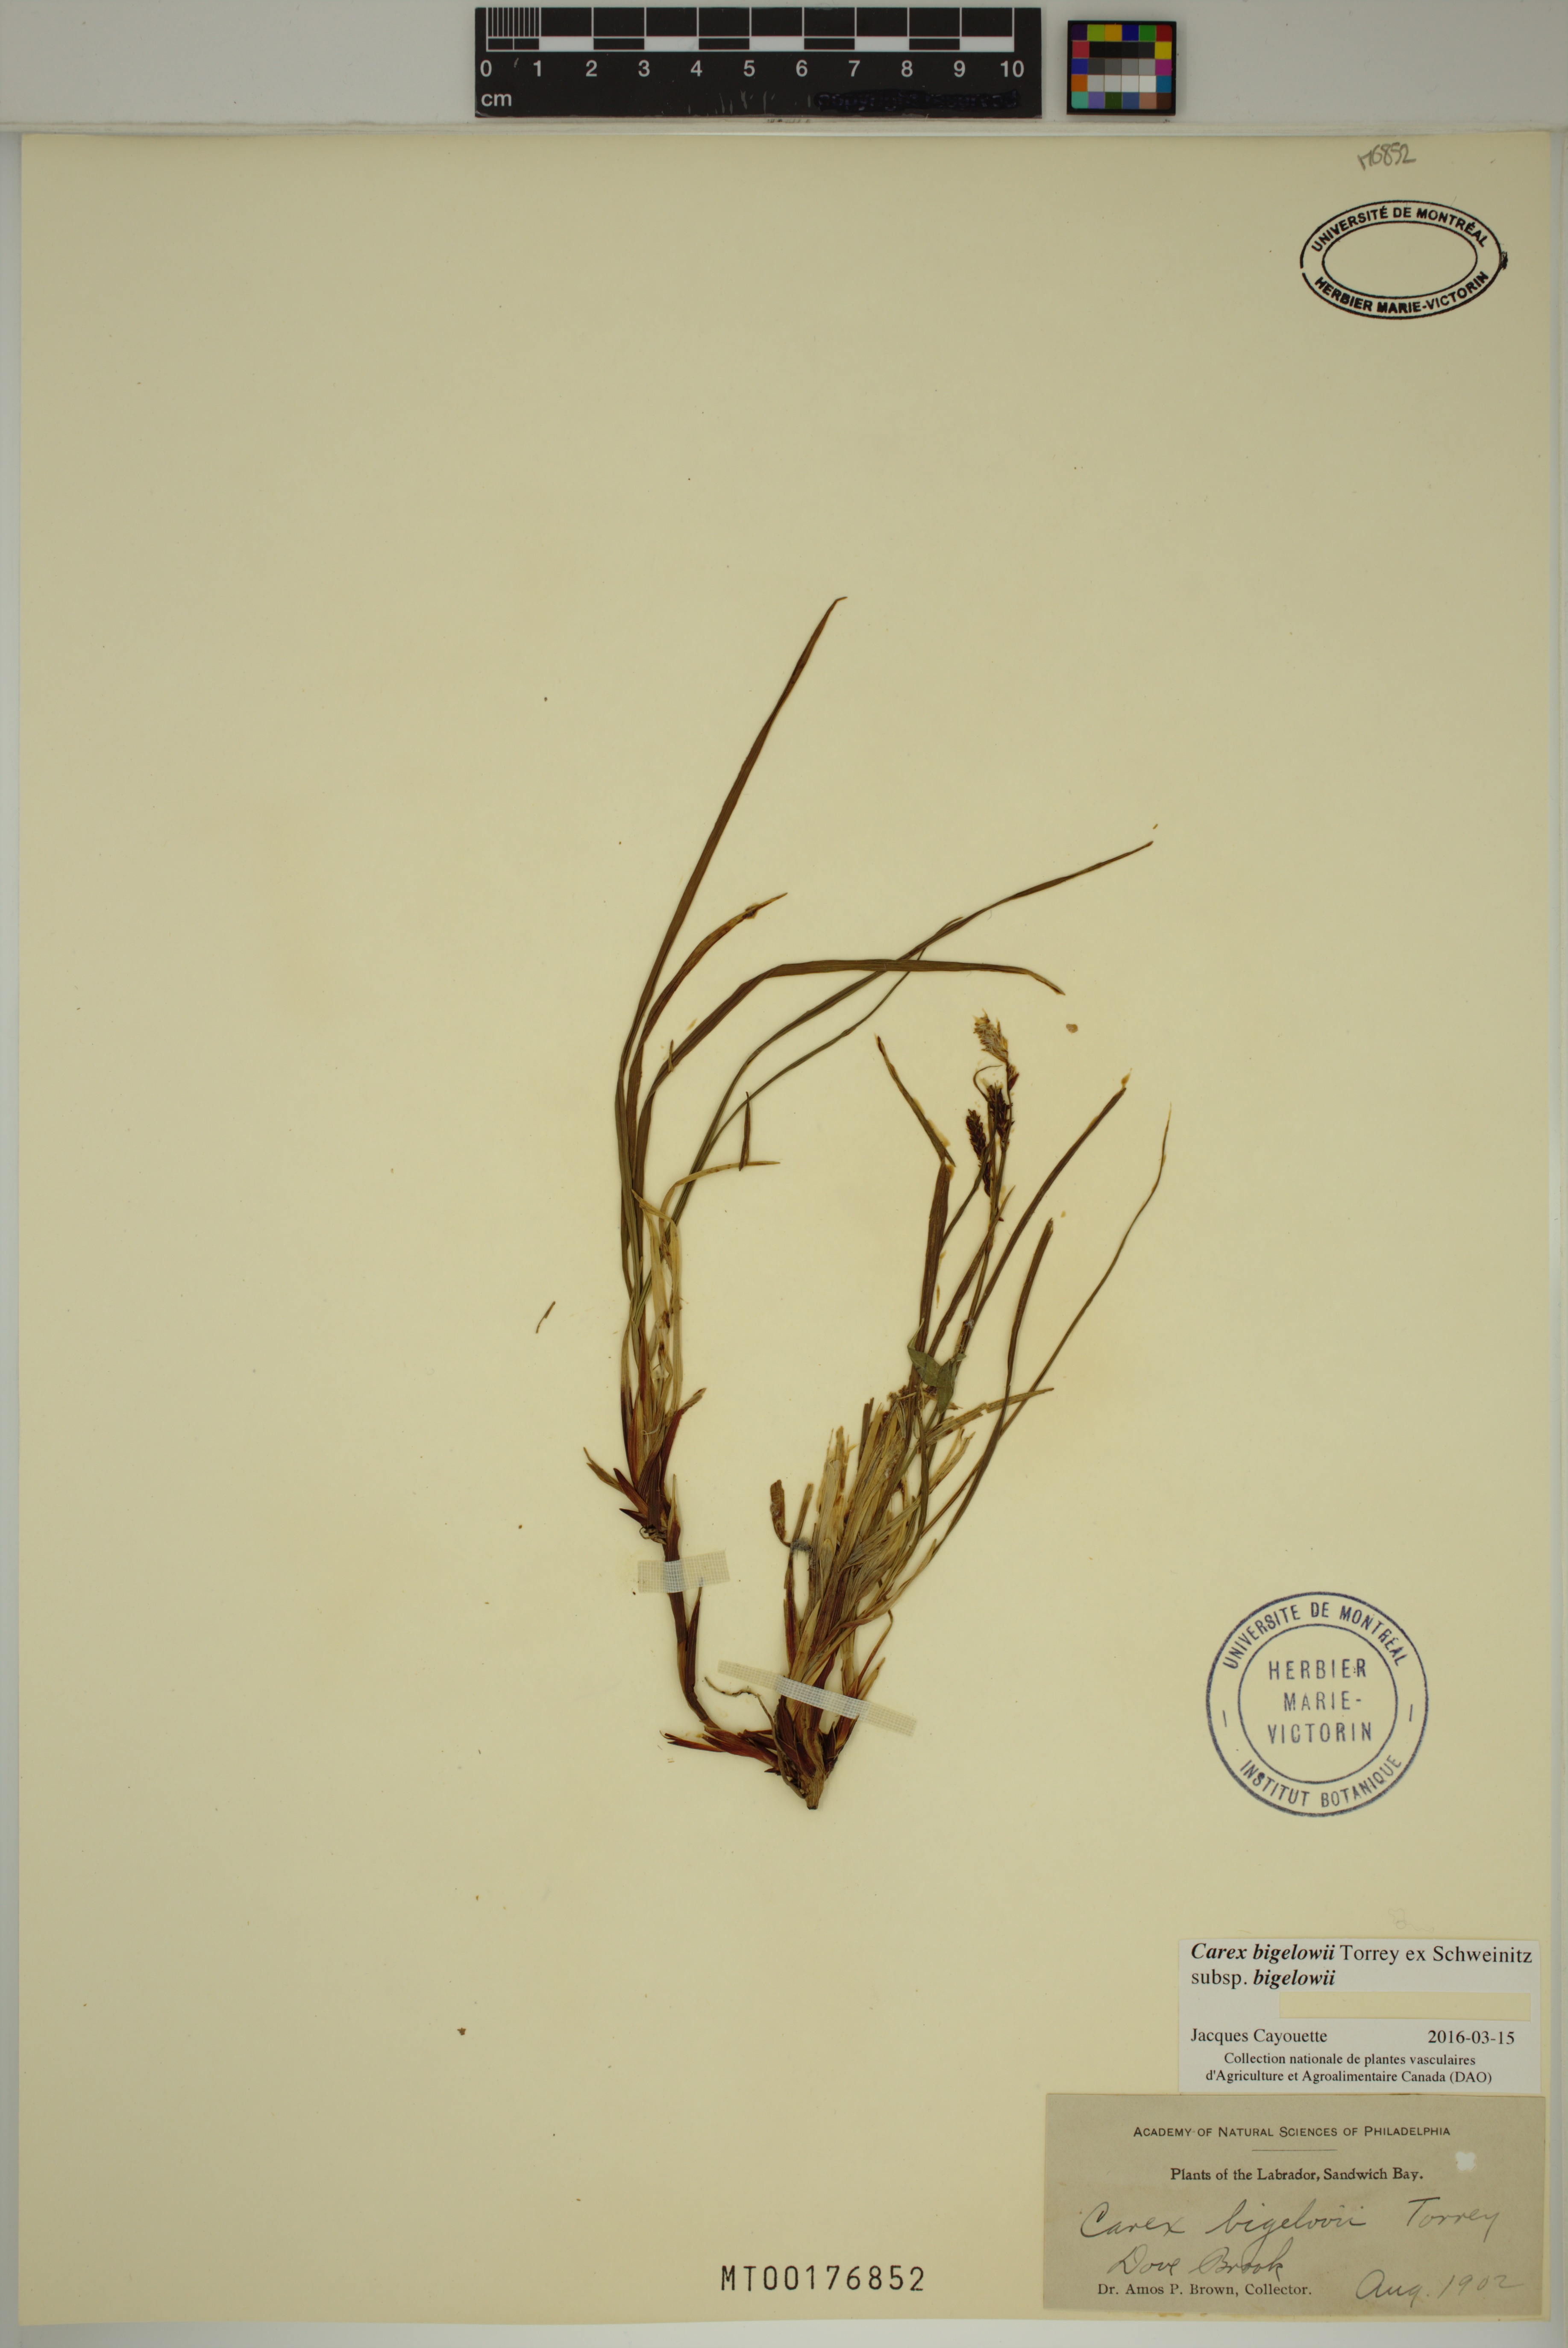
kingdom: Plantae
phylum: Tracheophyta
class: Liliopsida
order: Poales
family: Cyperaceae
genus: Carex
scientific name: Carex bigelowii
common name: Stiff sedge
